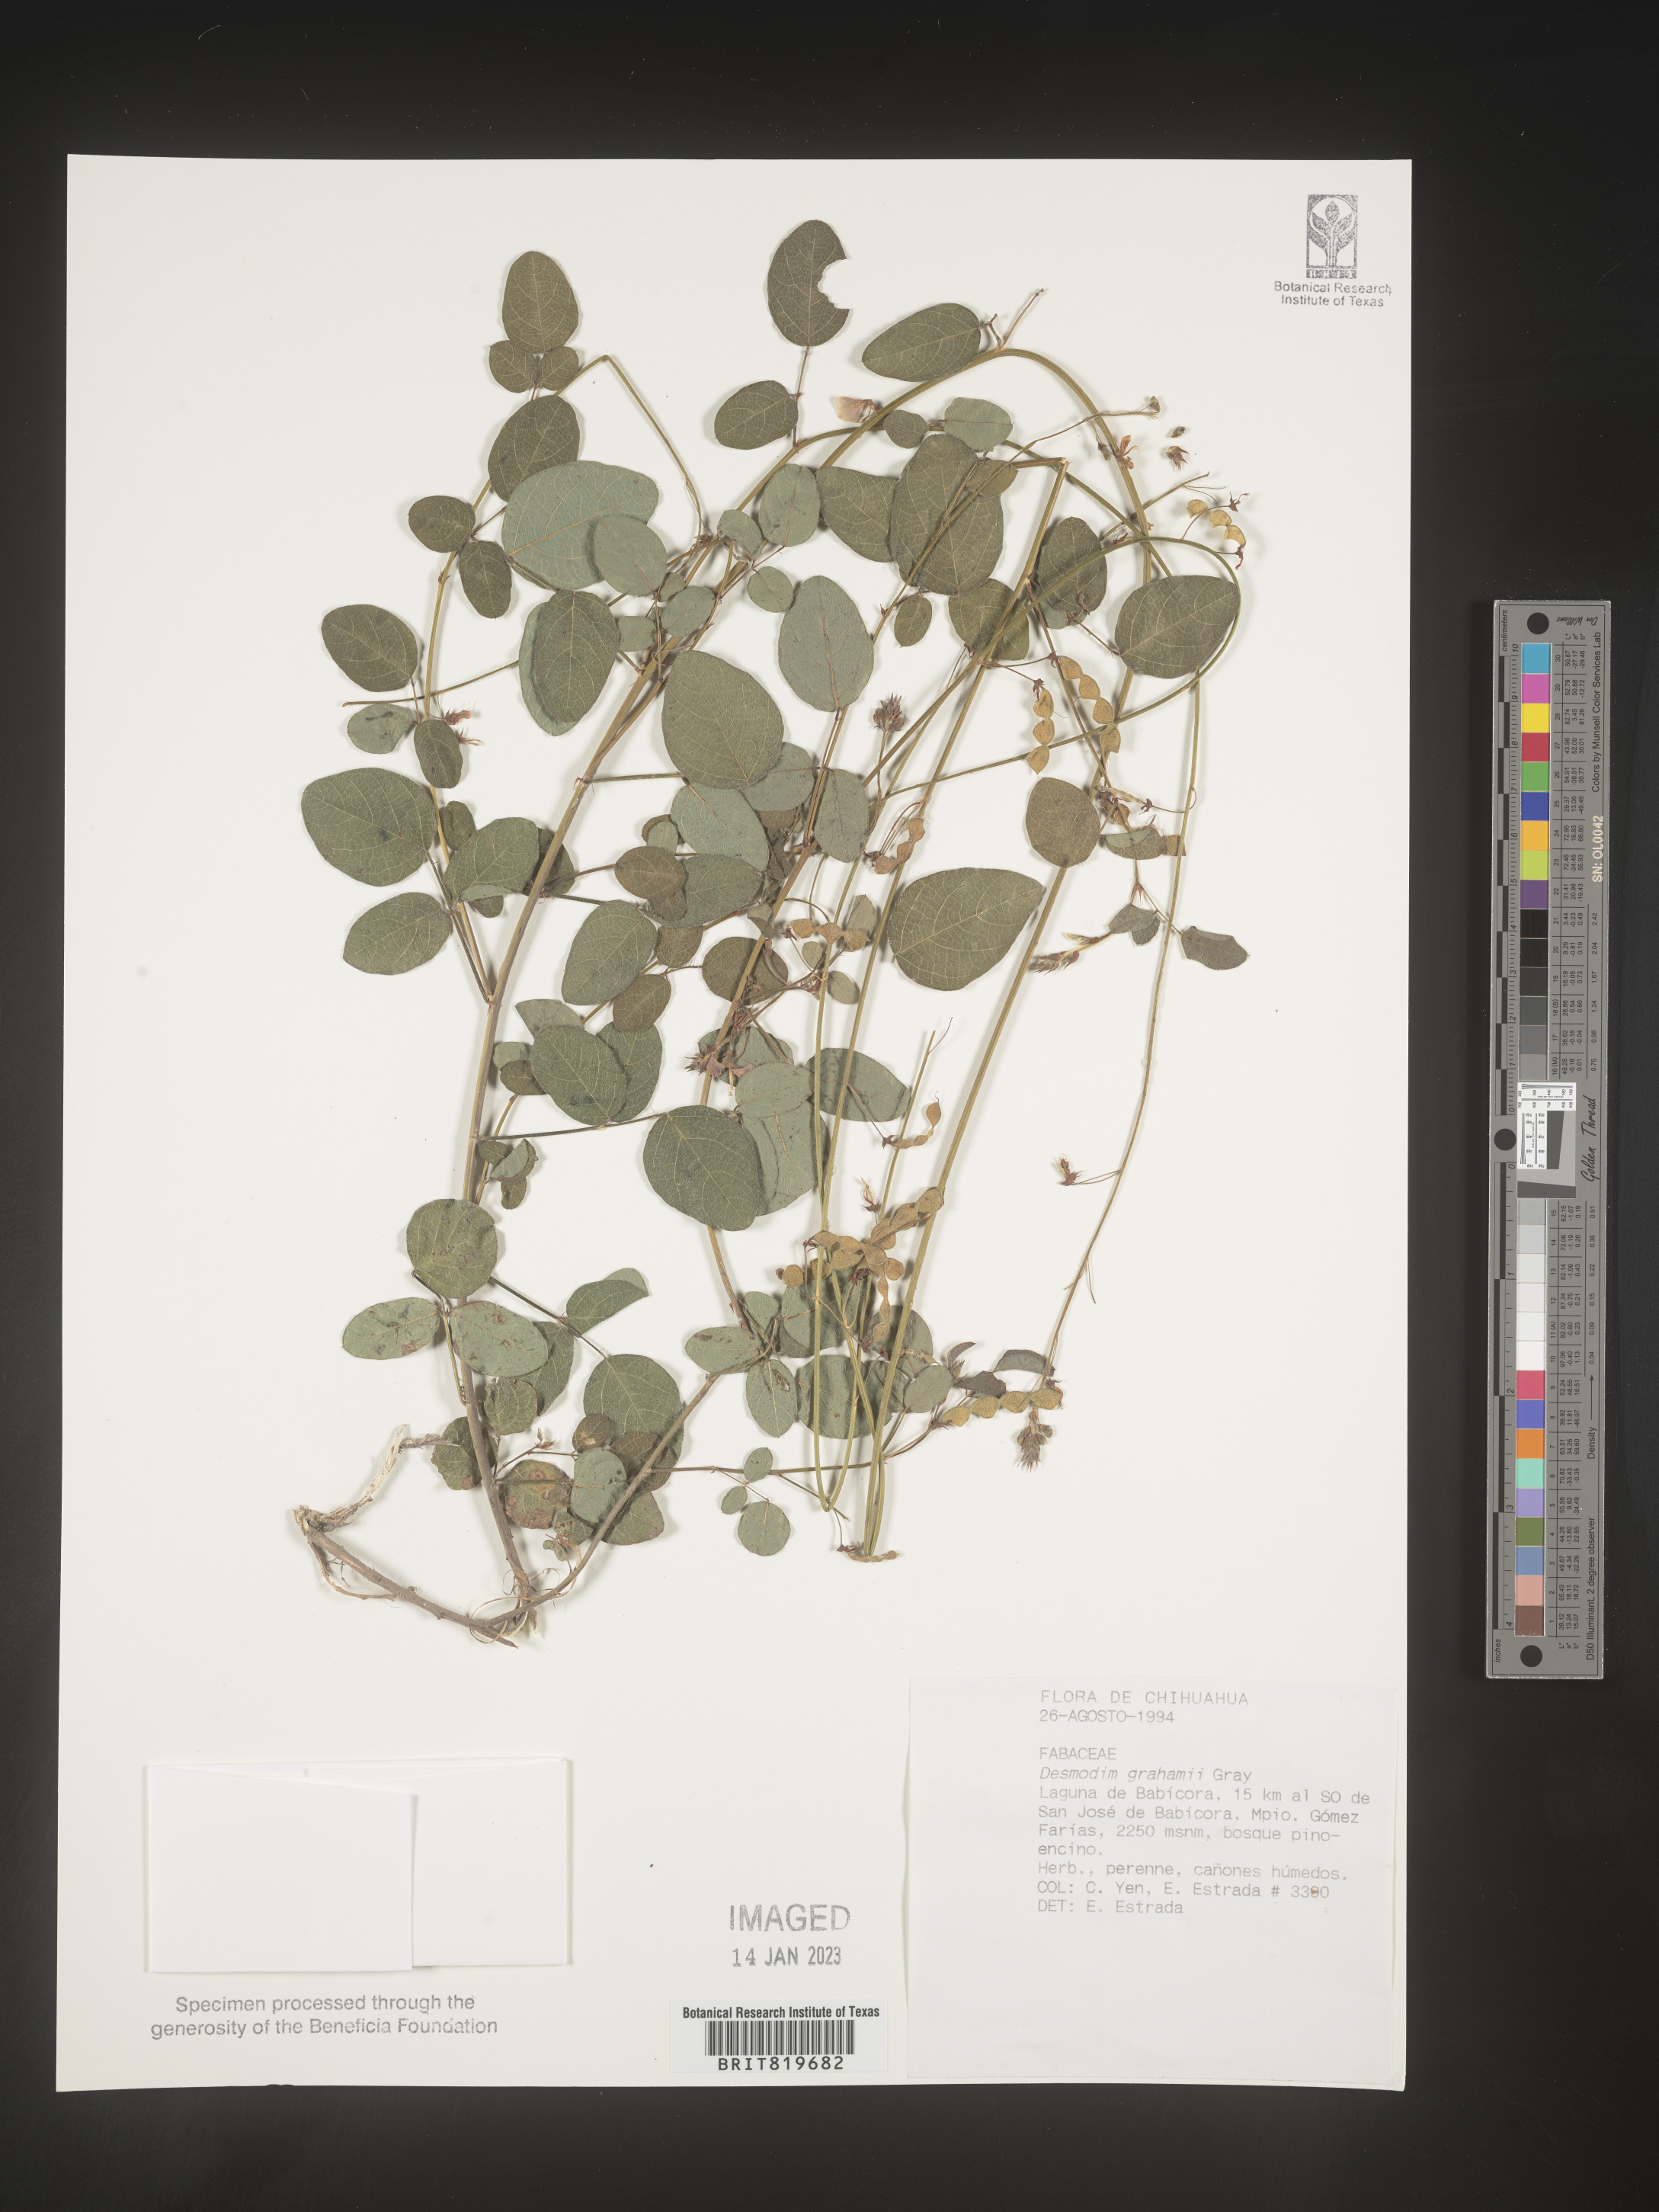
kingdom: Plantae
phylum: Tracheophyta
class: Magnoliopsida
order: Fabales
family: Fabaceae
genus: Desmodium
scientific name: Desmodium
